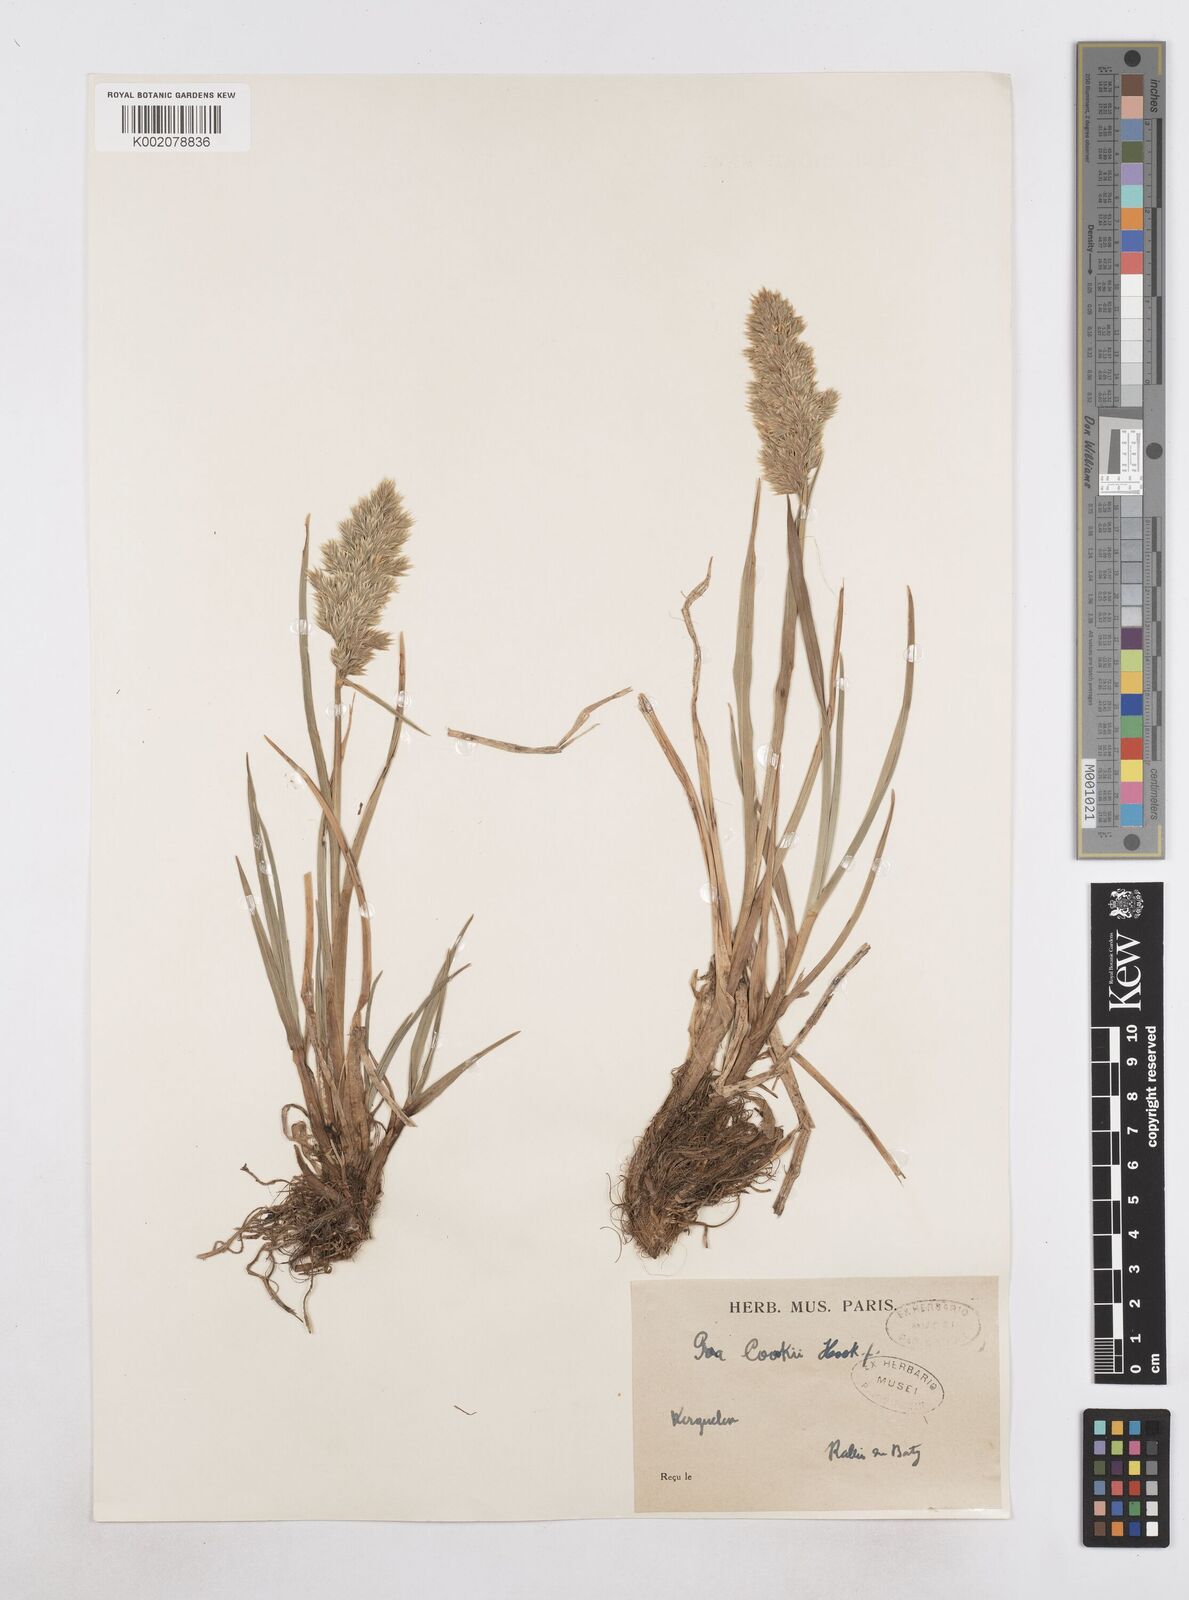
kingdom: Plantae
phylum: Tracheophyta
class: Liliopsida
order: Poales
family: Poaceae
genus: Poa
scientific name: Poa cookii
